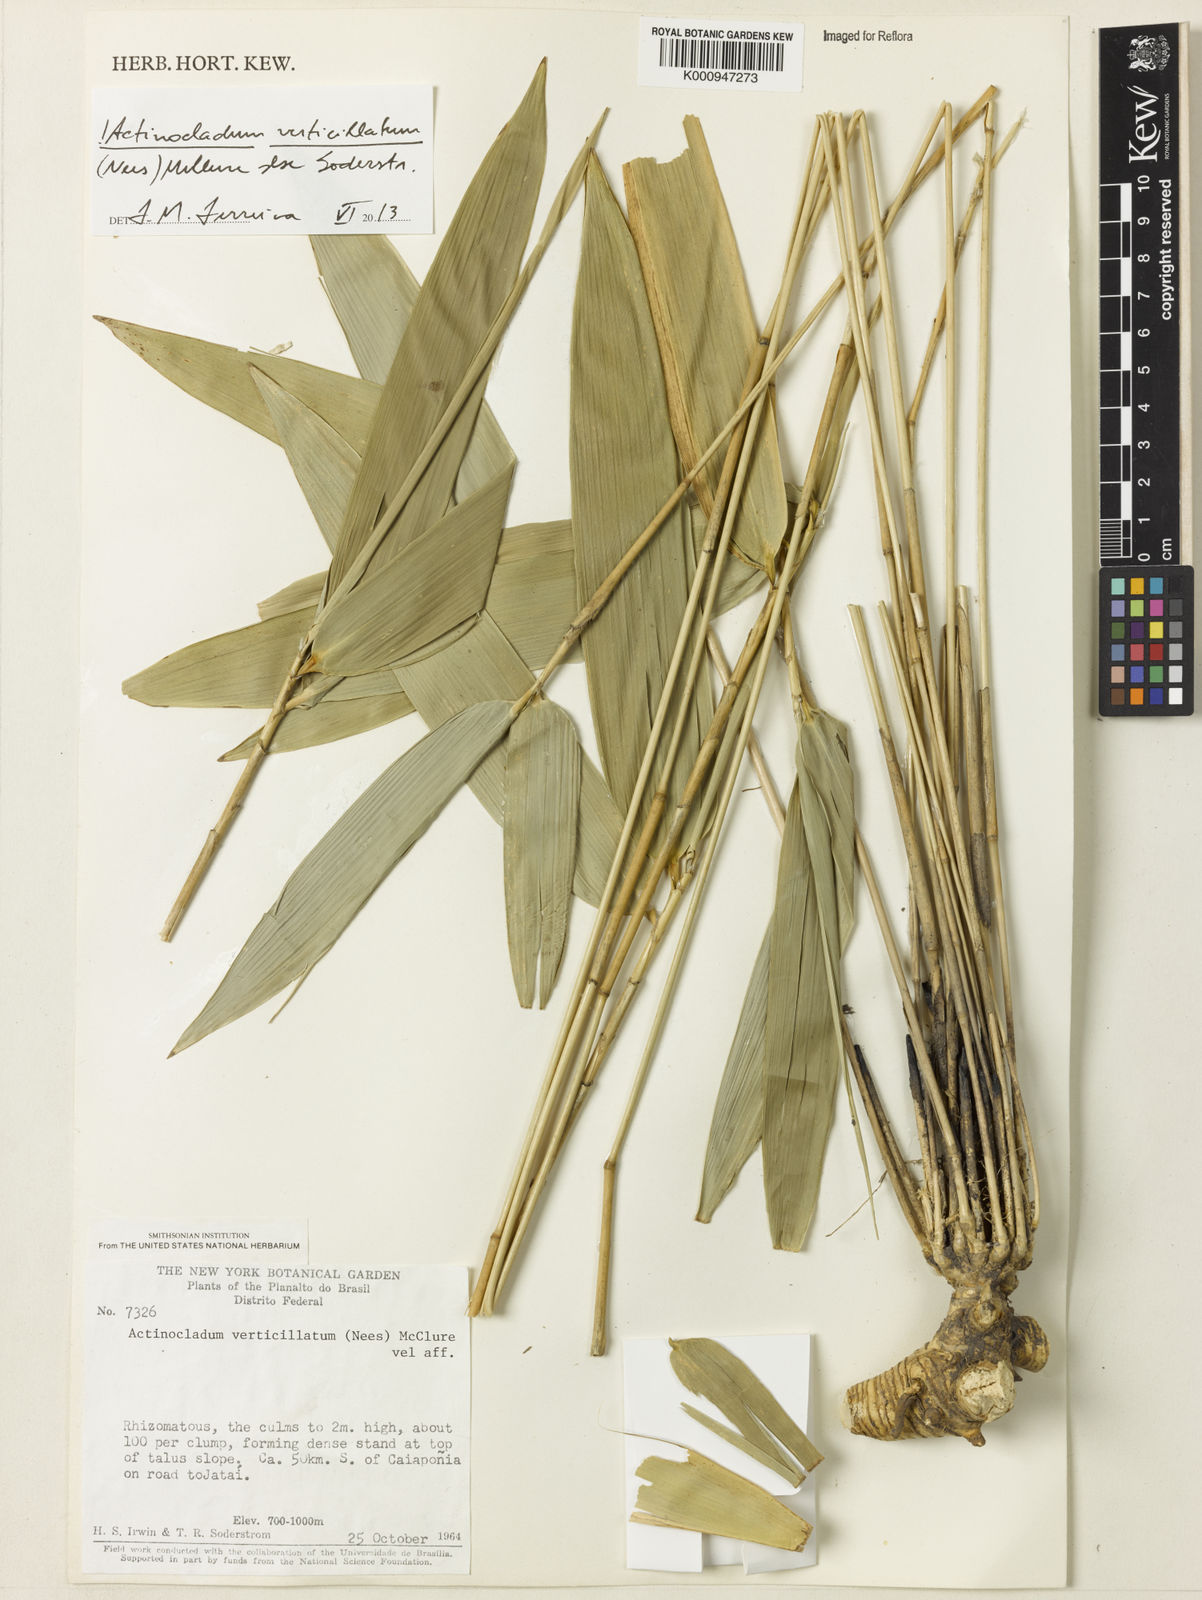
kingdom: Plantae
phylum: Tracheophyta
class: Liliopsida
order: Poales
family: Poaceae
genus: Actinocladum
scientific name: Actinocladum verticillatum
